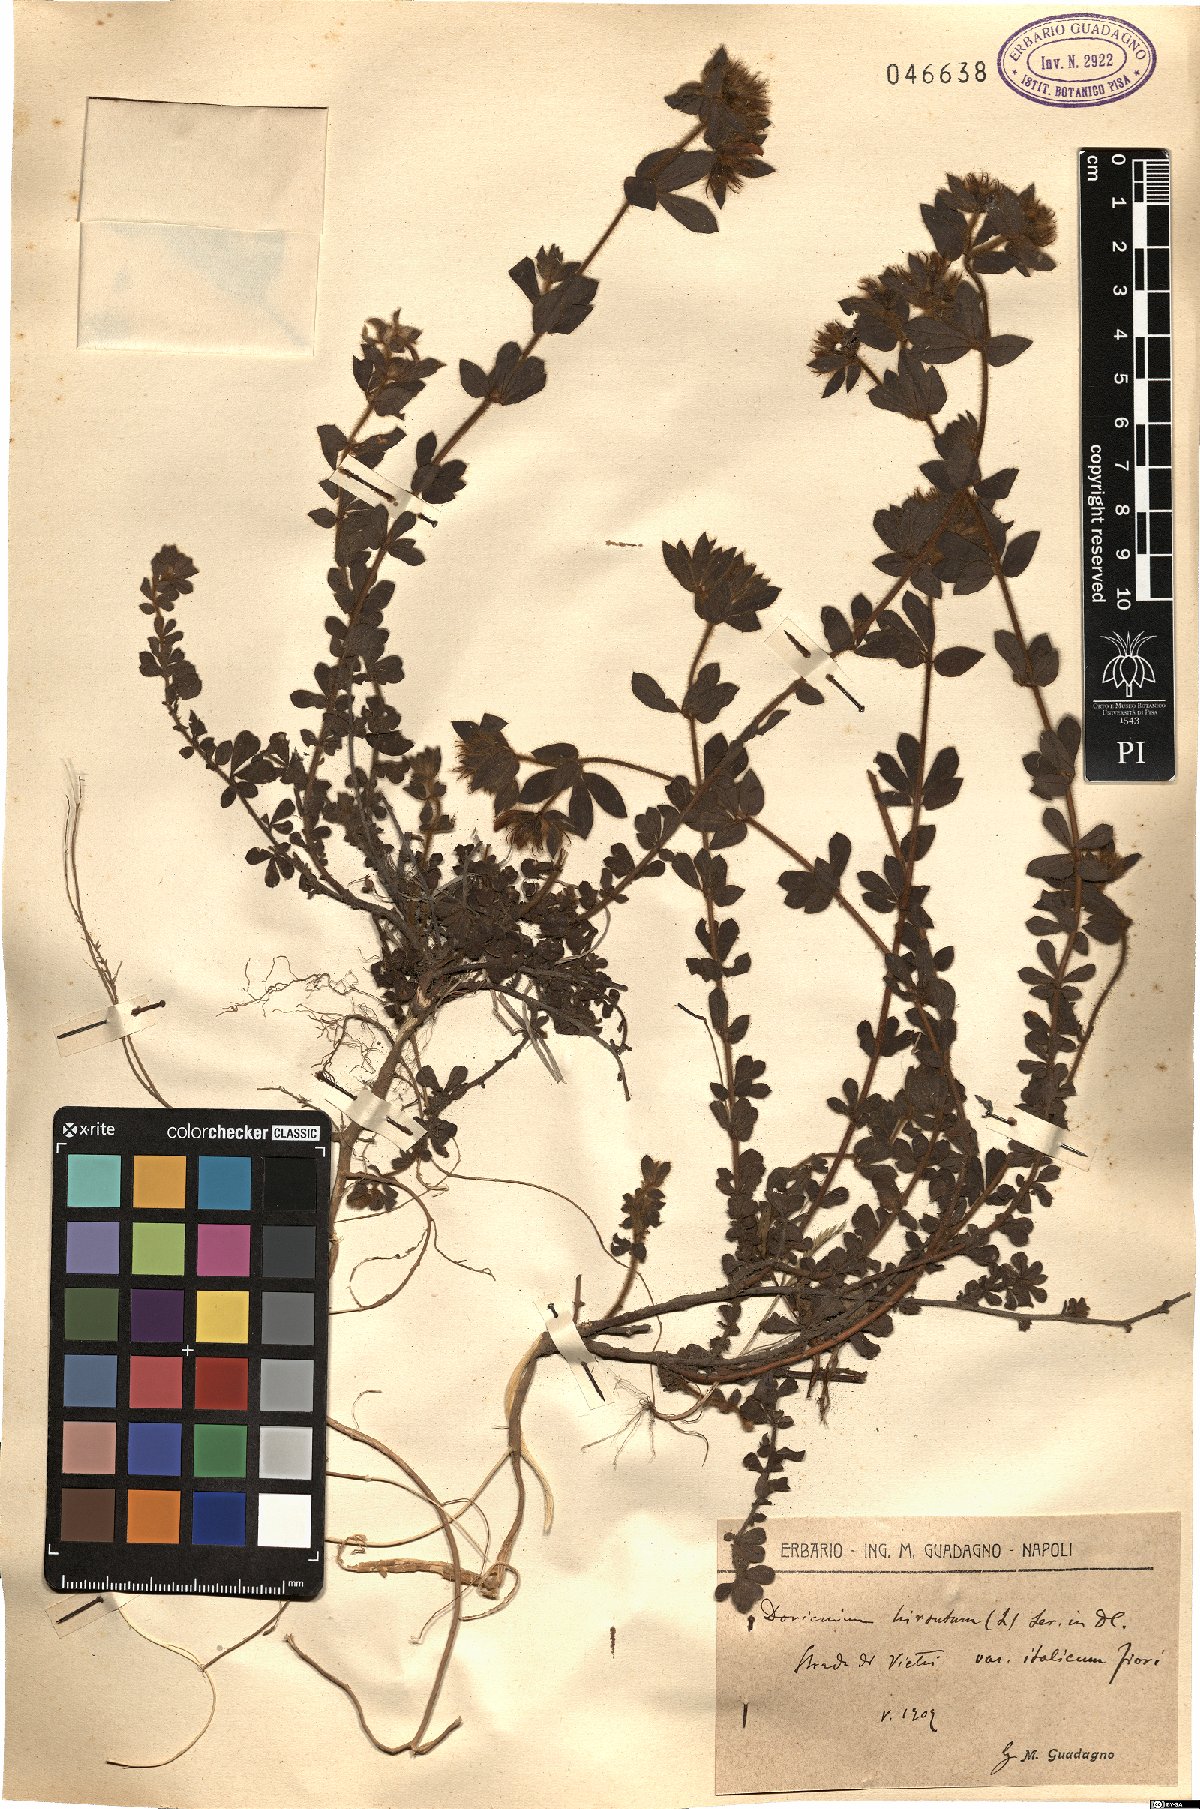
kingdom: Plantae
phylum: Tracheophyta
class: Magnoliopsida
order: Fabales
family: Fabaceae
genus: Lotus
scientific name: Lotus hirsutus
